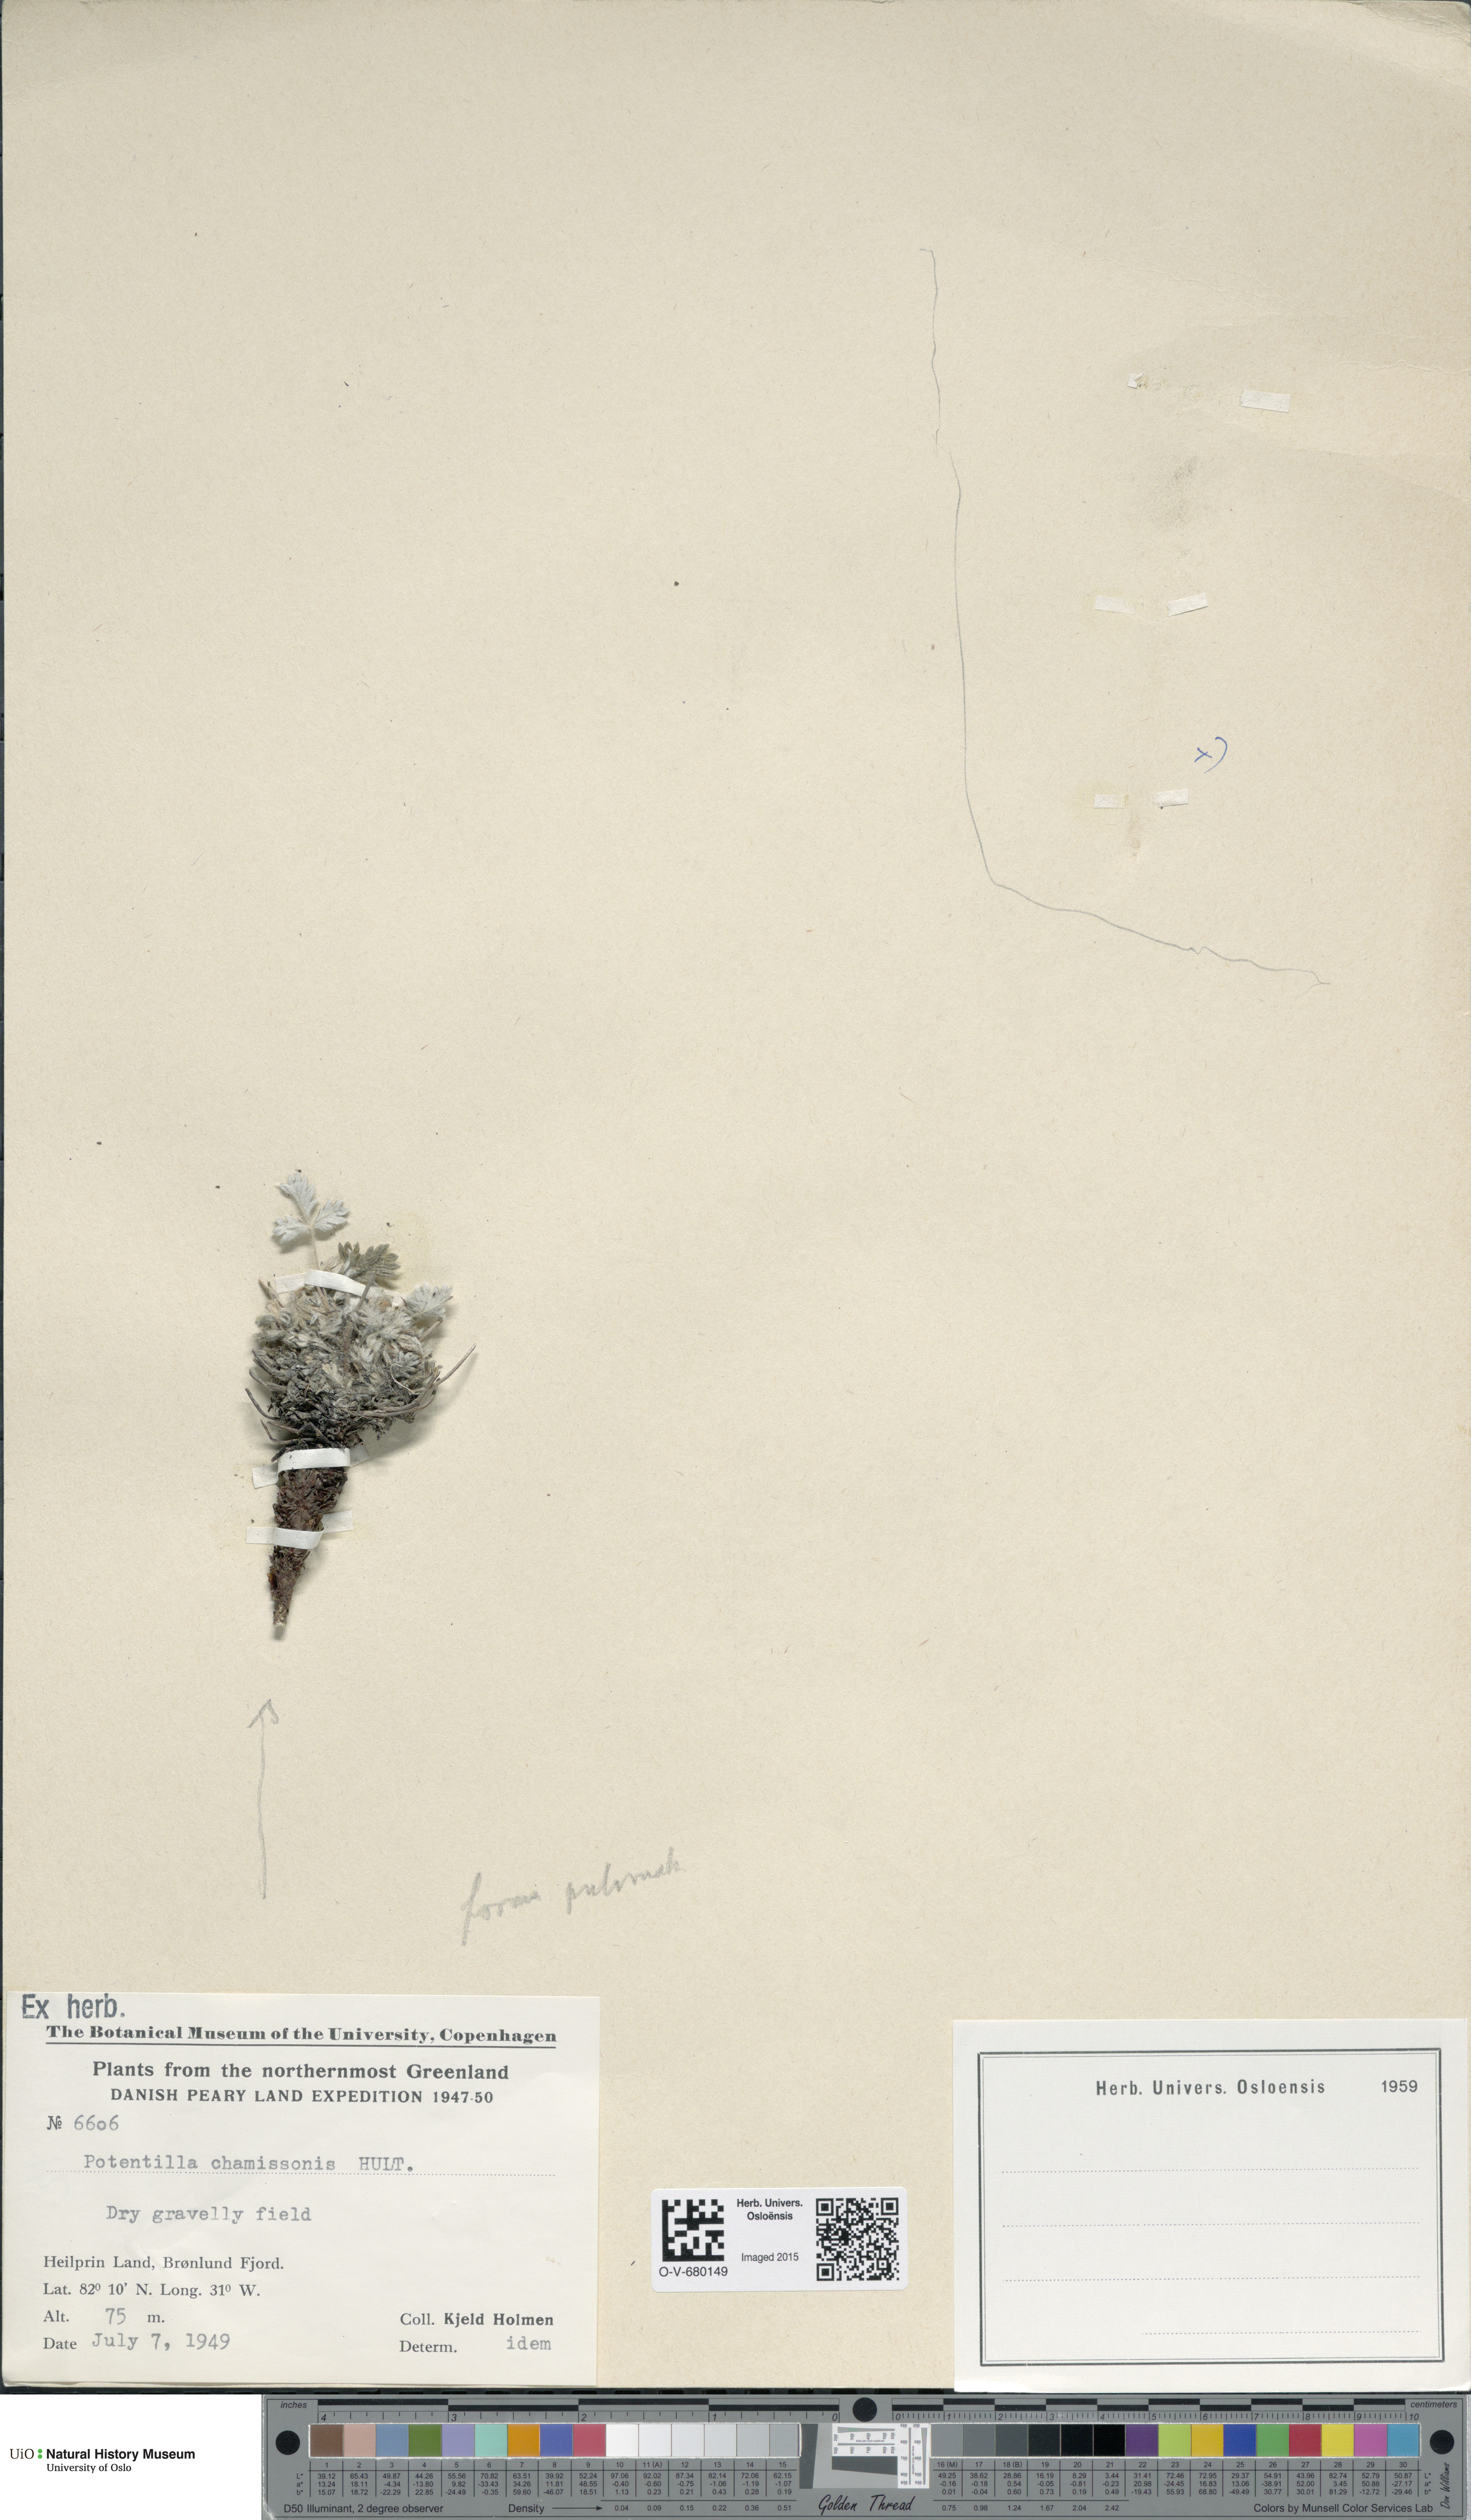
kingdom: Plantae
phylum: Tracheophyta
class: Magnoliopsida
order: Rosales
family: Rosaceae
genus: Potentilla
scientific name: Potentilla chamissonis
